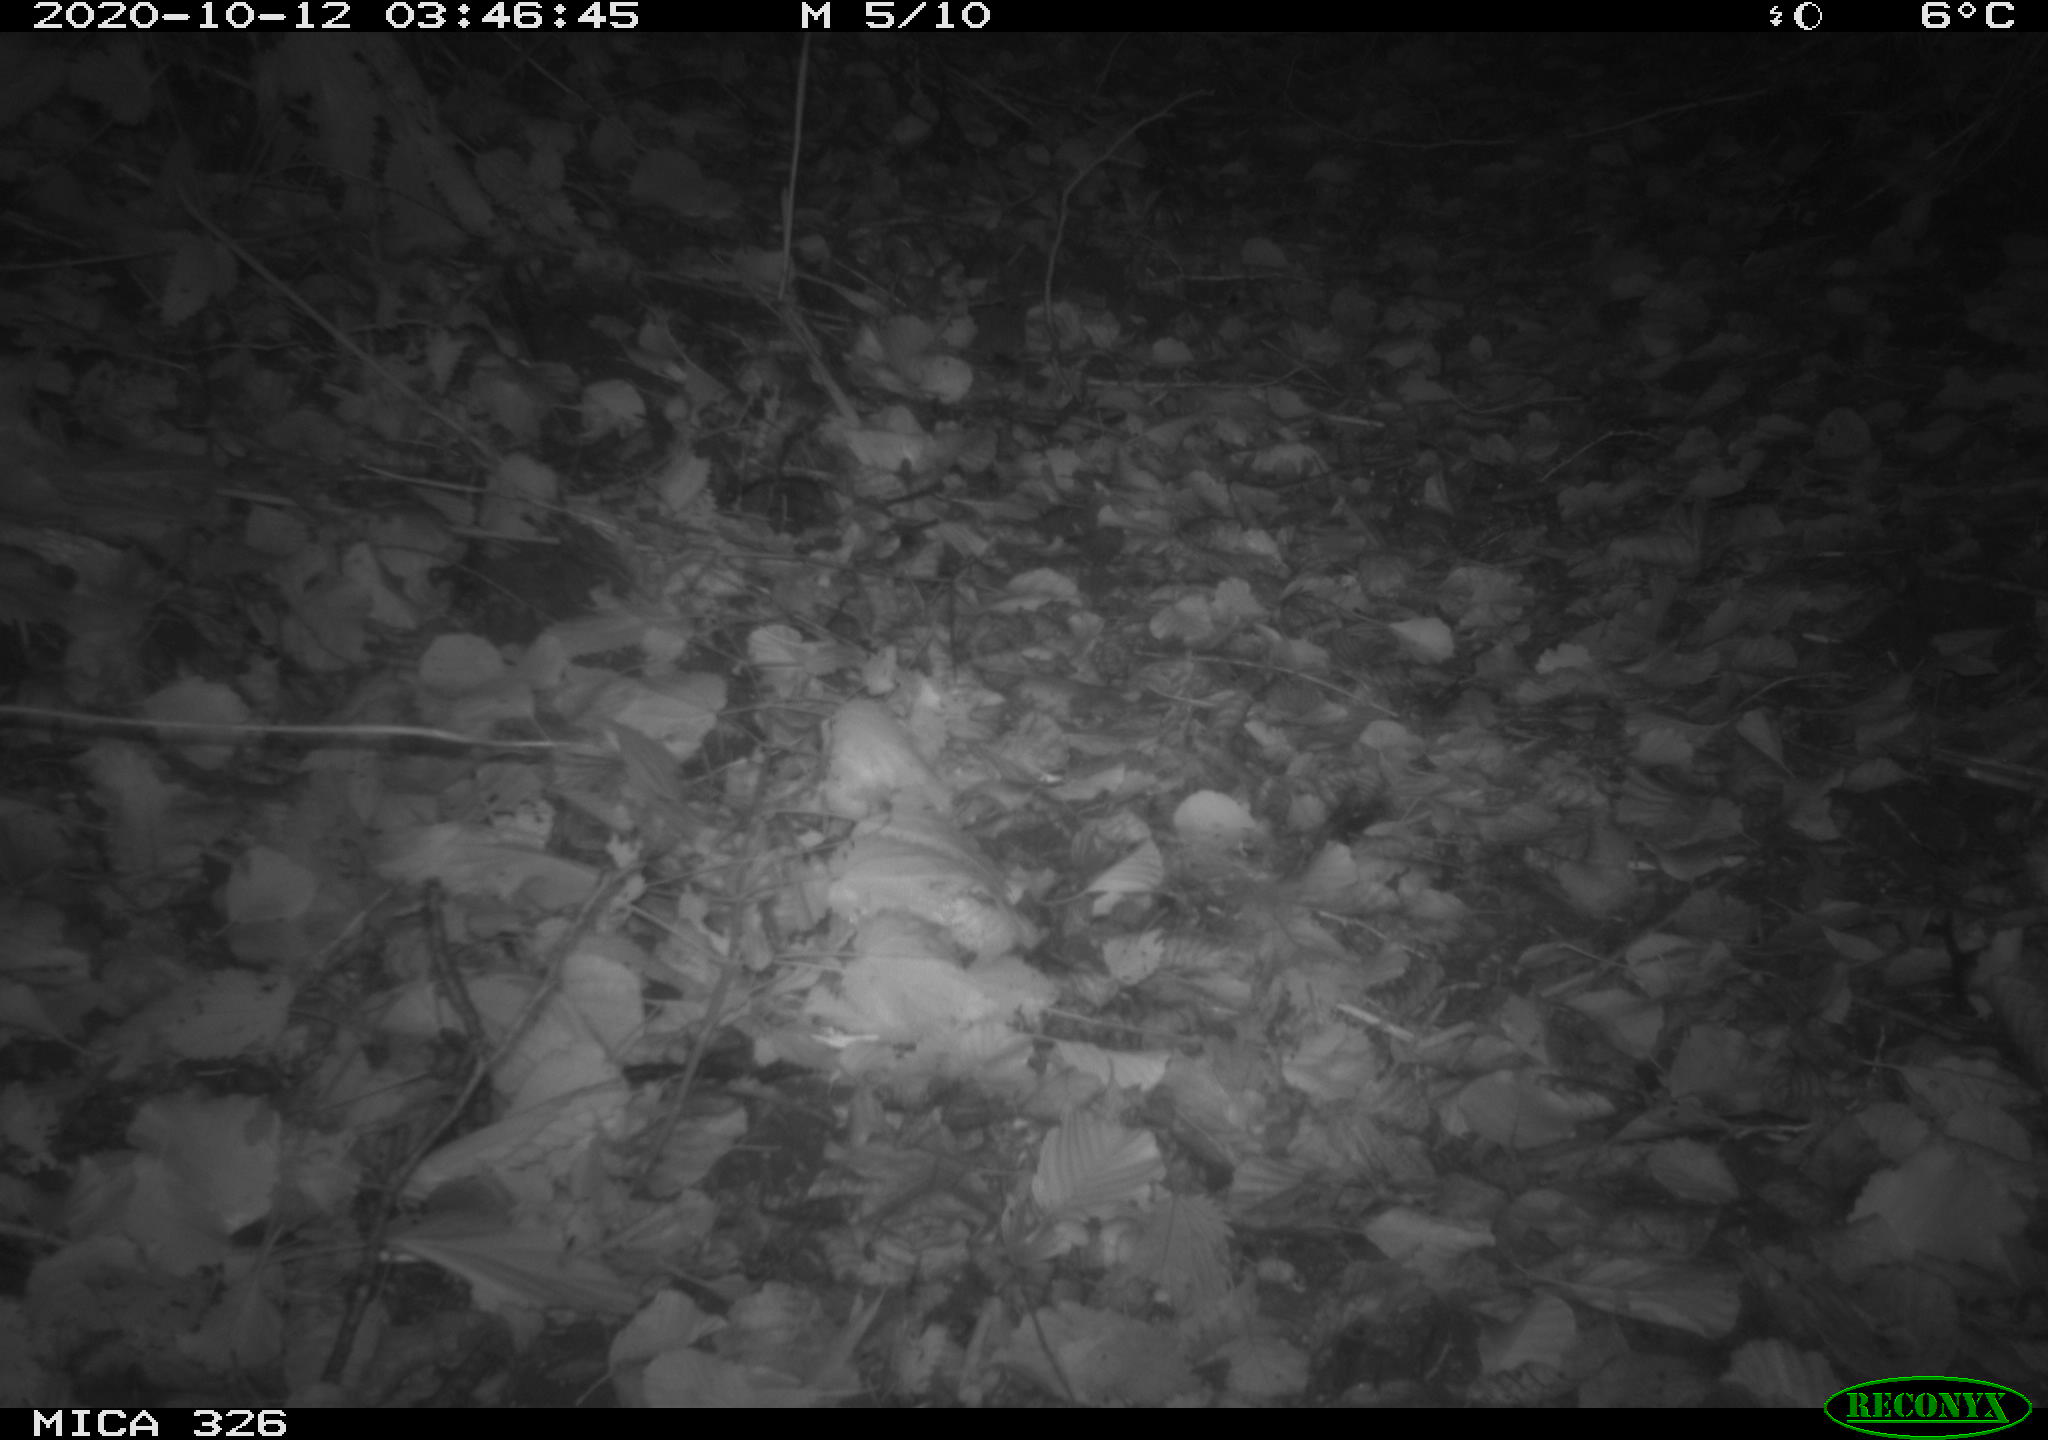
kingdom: Animalia
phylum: Chordata
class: Mammalia
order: Carnivora
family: Mustelidae
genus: Lutra
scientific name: Lutra lutra
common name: European otter
